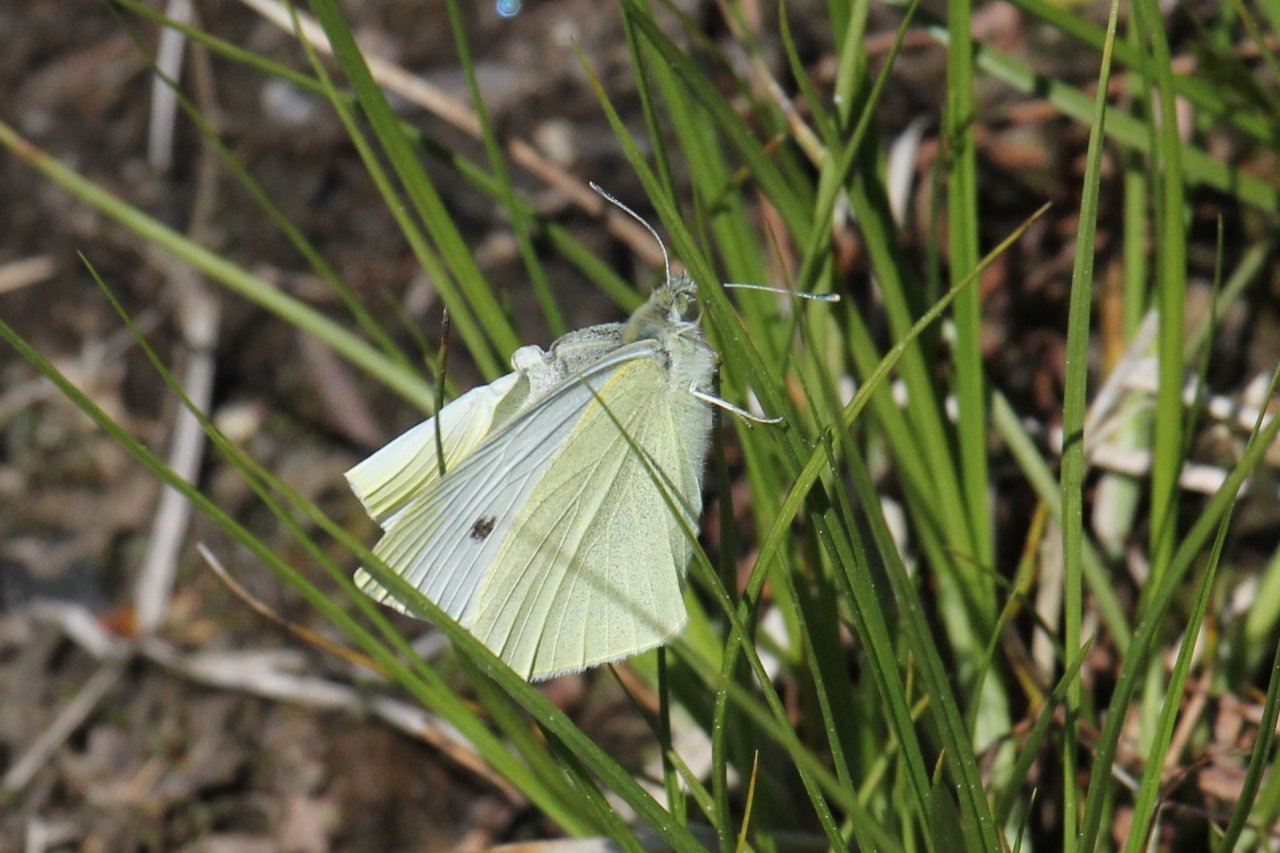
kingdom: Animalia
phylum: Arthropoda
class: Insecta
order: Lepidoptera
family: Pieridae
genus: Pieris
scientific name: Pieris rapae
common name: Cabbage White
